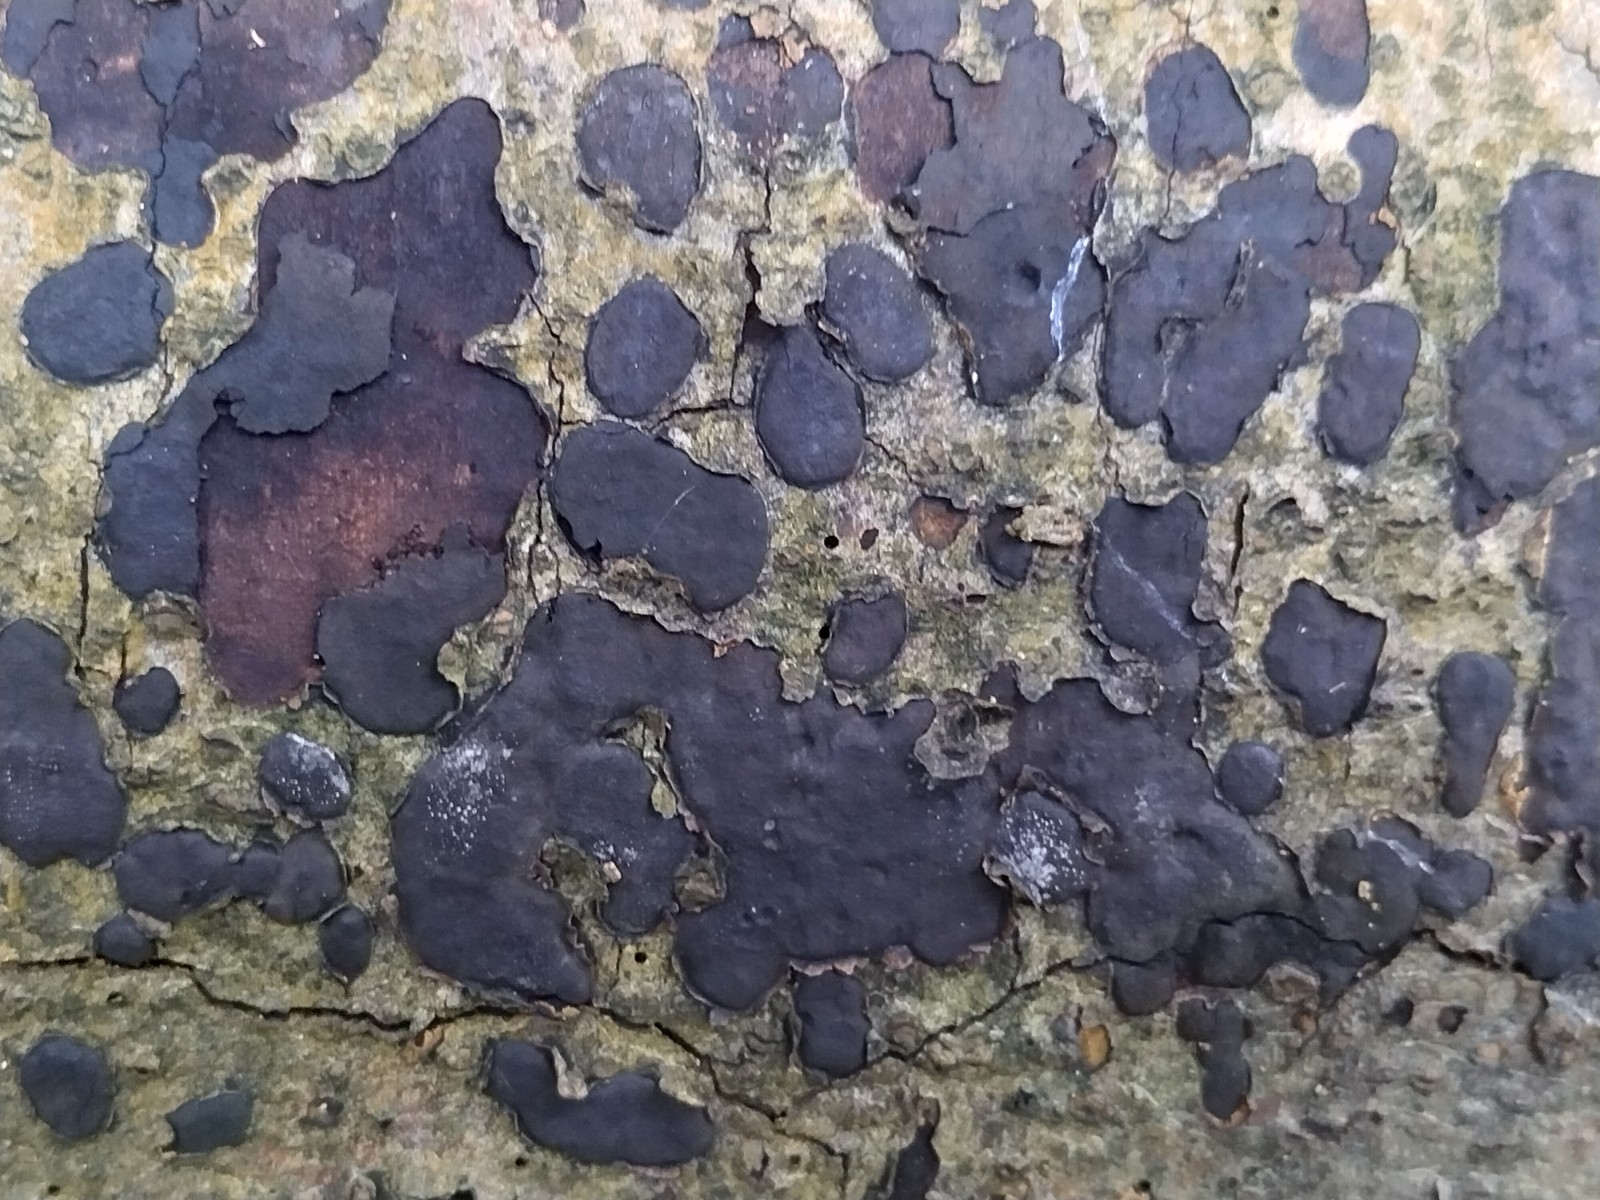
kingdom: Fungi
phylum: Ascomycota
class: Sordariomycetes
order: Xylariales
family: Graphostromataceae
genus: Biscogniauxia
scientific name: Biscogniauxia nummularia
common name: bøge-kulskive
